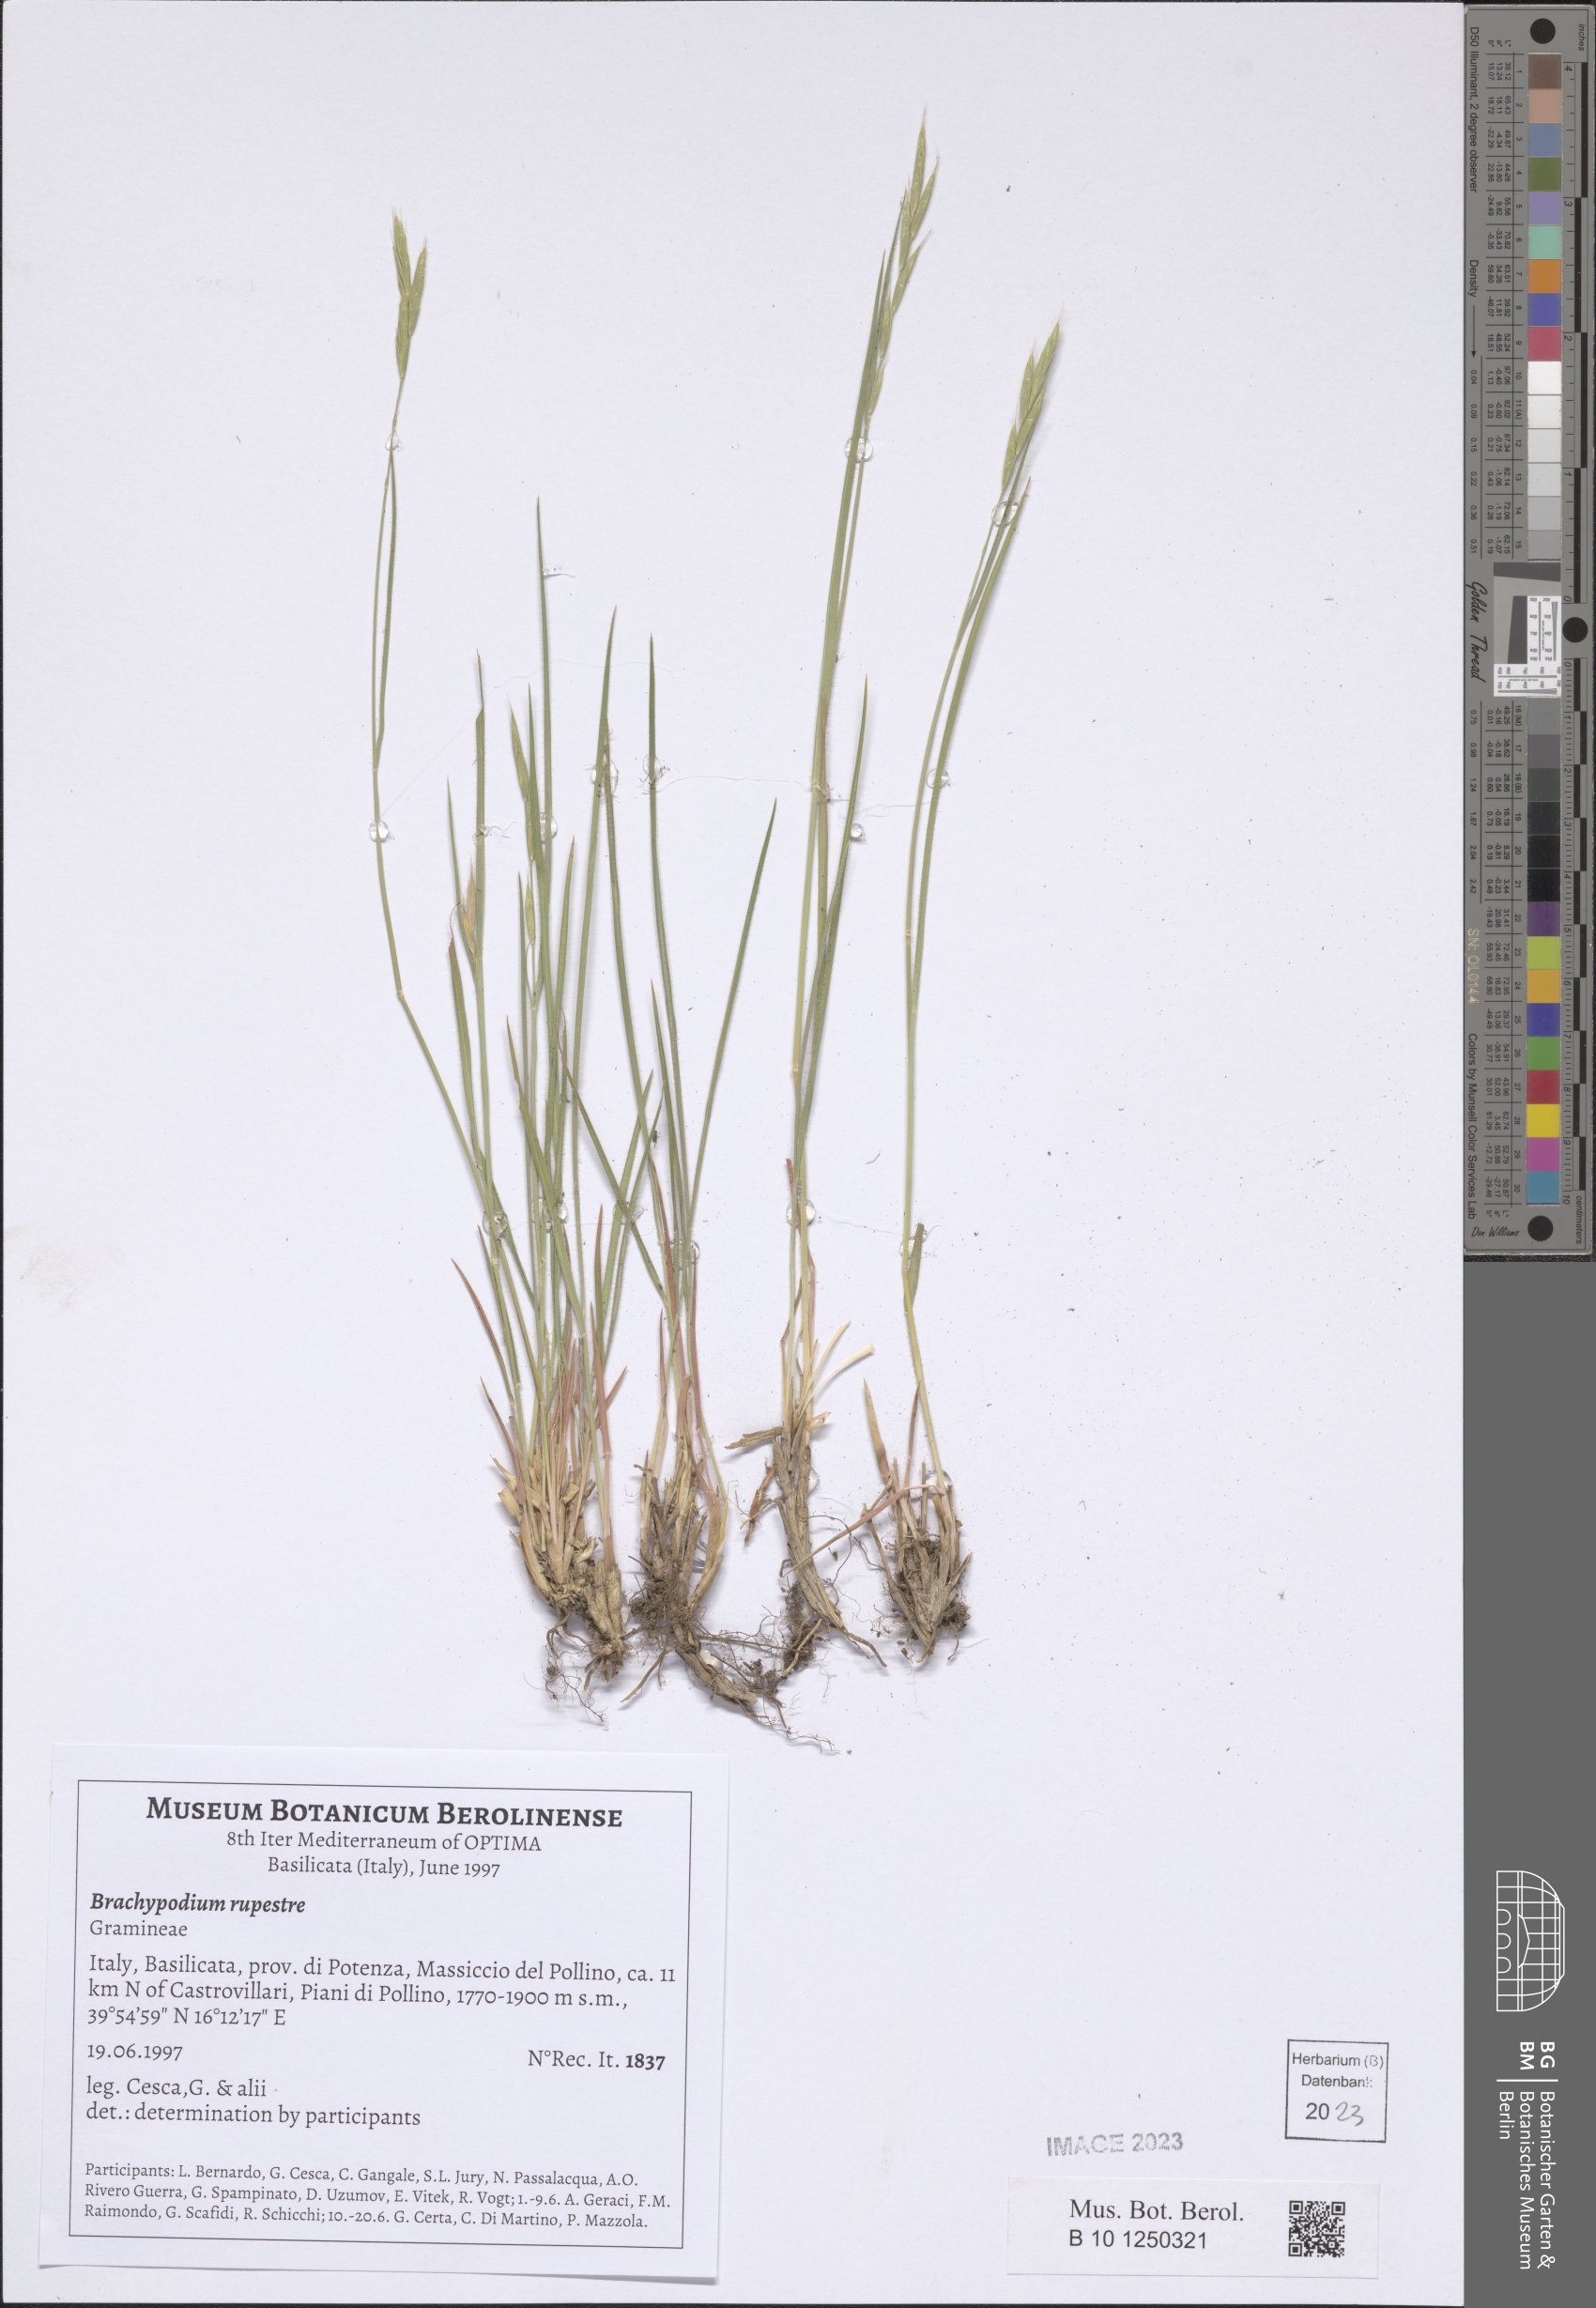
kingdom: Plantae
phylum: Tracheophyta
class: Liliopsida
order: Poales
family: Poaceae
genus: Brachypodium
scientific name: Brachypodium pinnatum
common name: Tor grass
